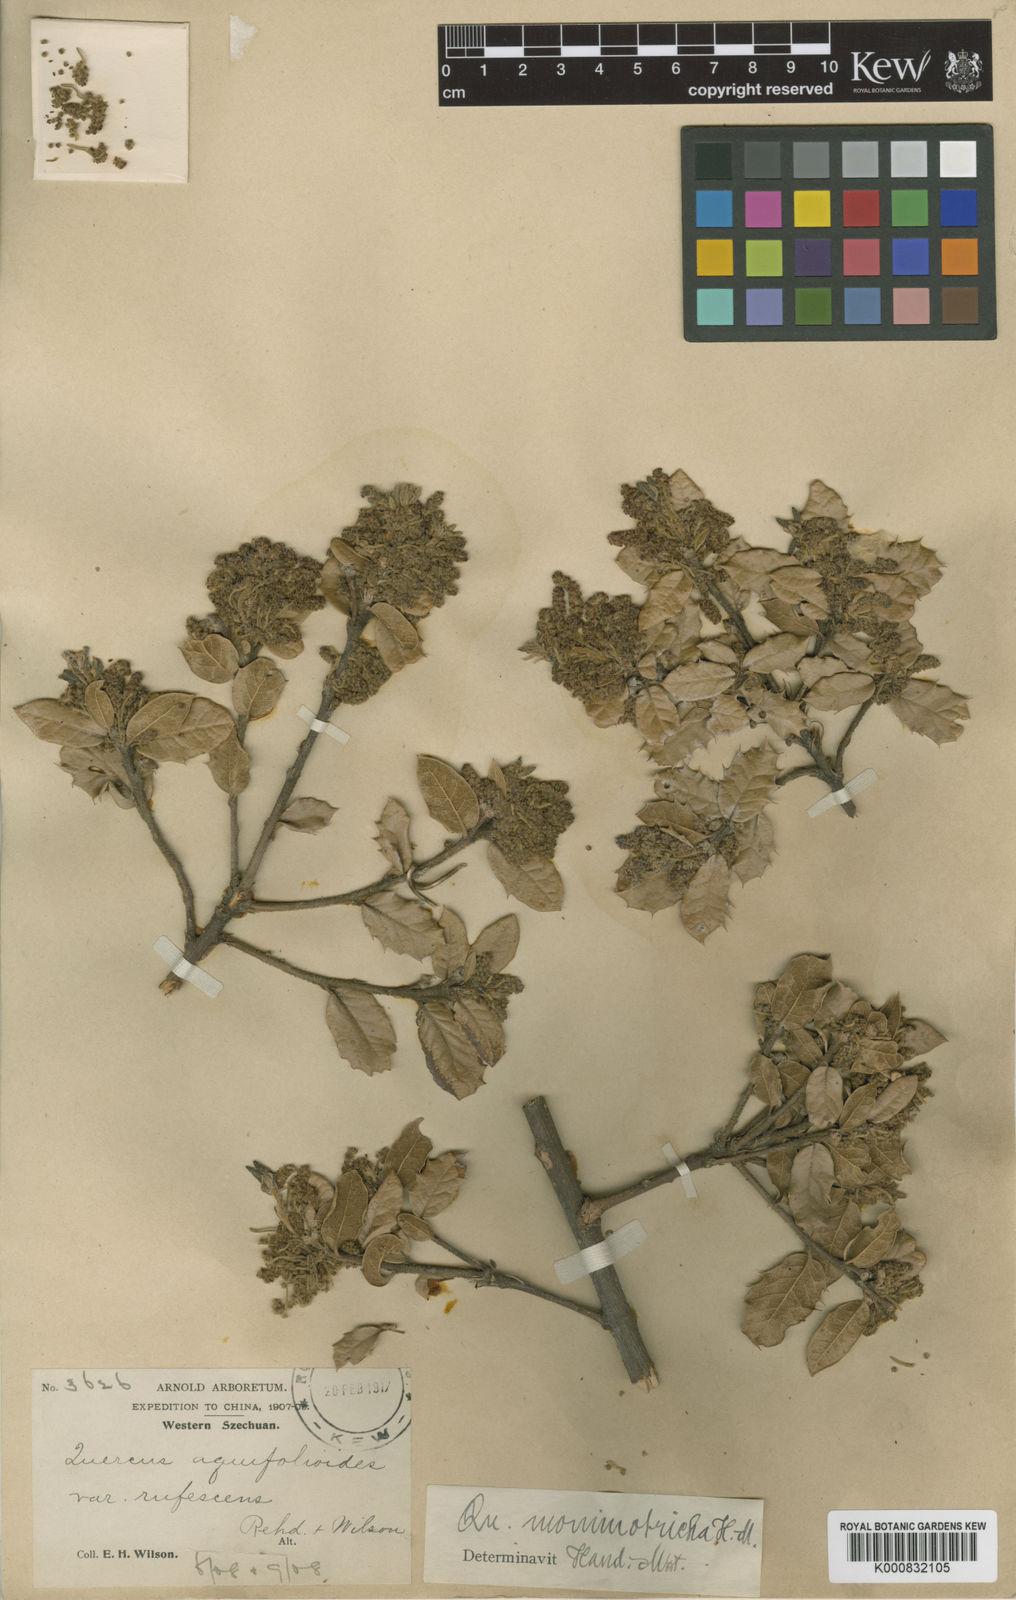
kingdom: Plantae
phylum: Tracheophyta
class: Magnoliopsida
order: Fagales
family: Fagaceae
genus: Quercus
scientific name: Quercus monimotricha
